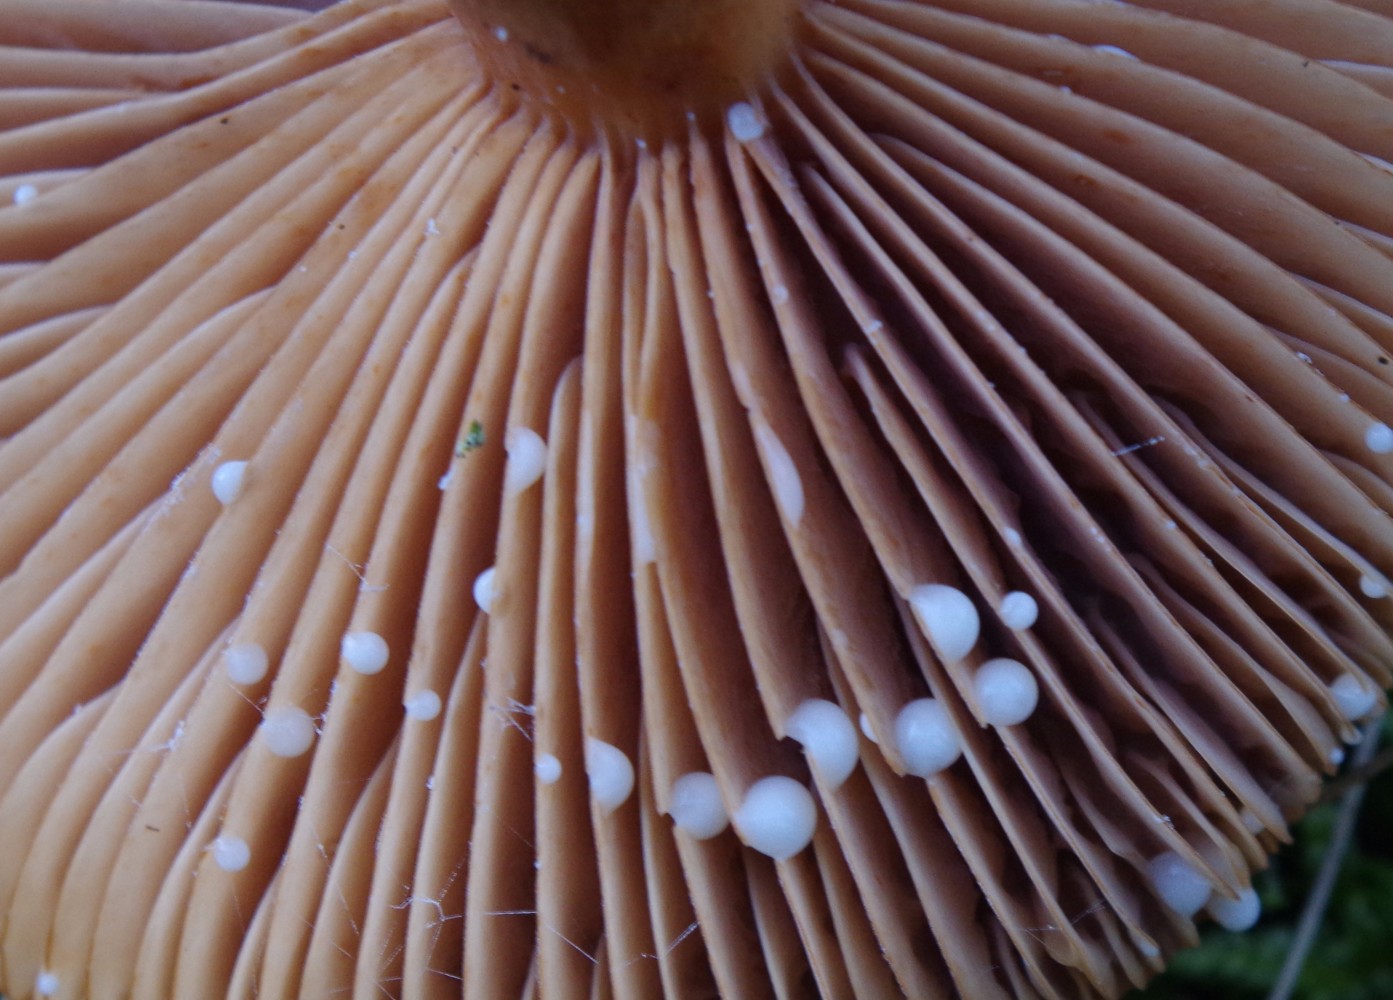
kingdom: Fungi
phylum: Basidiomycota
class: Agaricomycetes
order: Russulales
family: Russulaceae
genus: Lactarius
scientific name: Lactarius hepaticus
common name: leverbrun mælkehat
